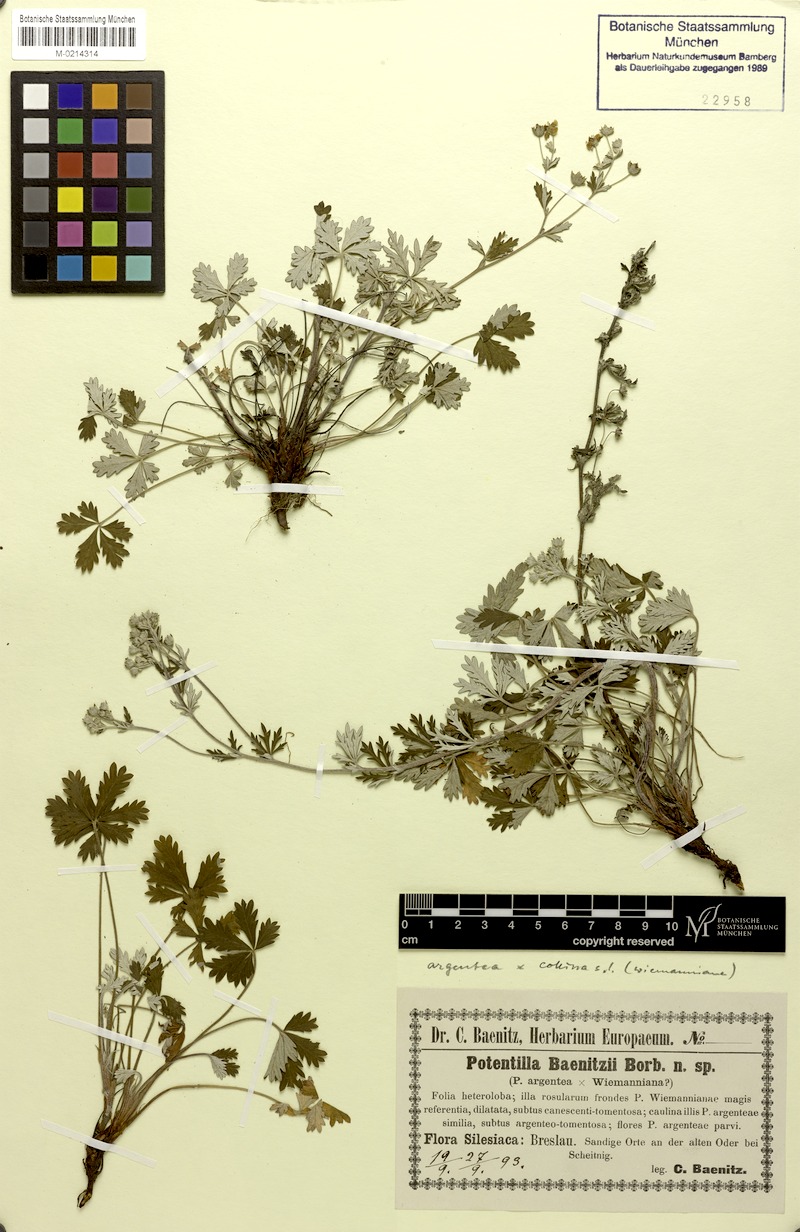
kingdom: Plantae
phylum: Tracheophyta
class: Magnoliopsida
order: Rosales
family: Rosaceae
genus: Potentilla
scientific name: Potentilla argentea
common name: Hoary cinquefoil
